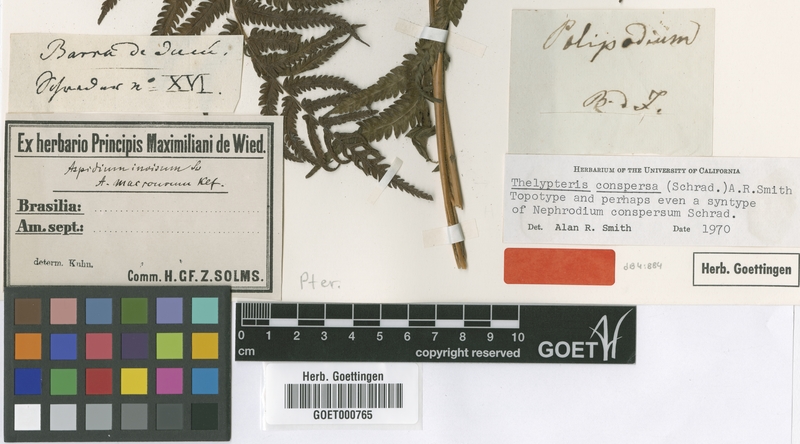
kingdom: Plantae
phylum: Tracheophyta
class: Polypodiopsida
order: Polypodiales
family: Thelypteridaceae
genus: Christella
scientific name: Christella conspersa
